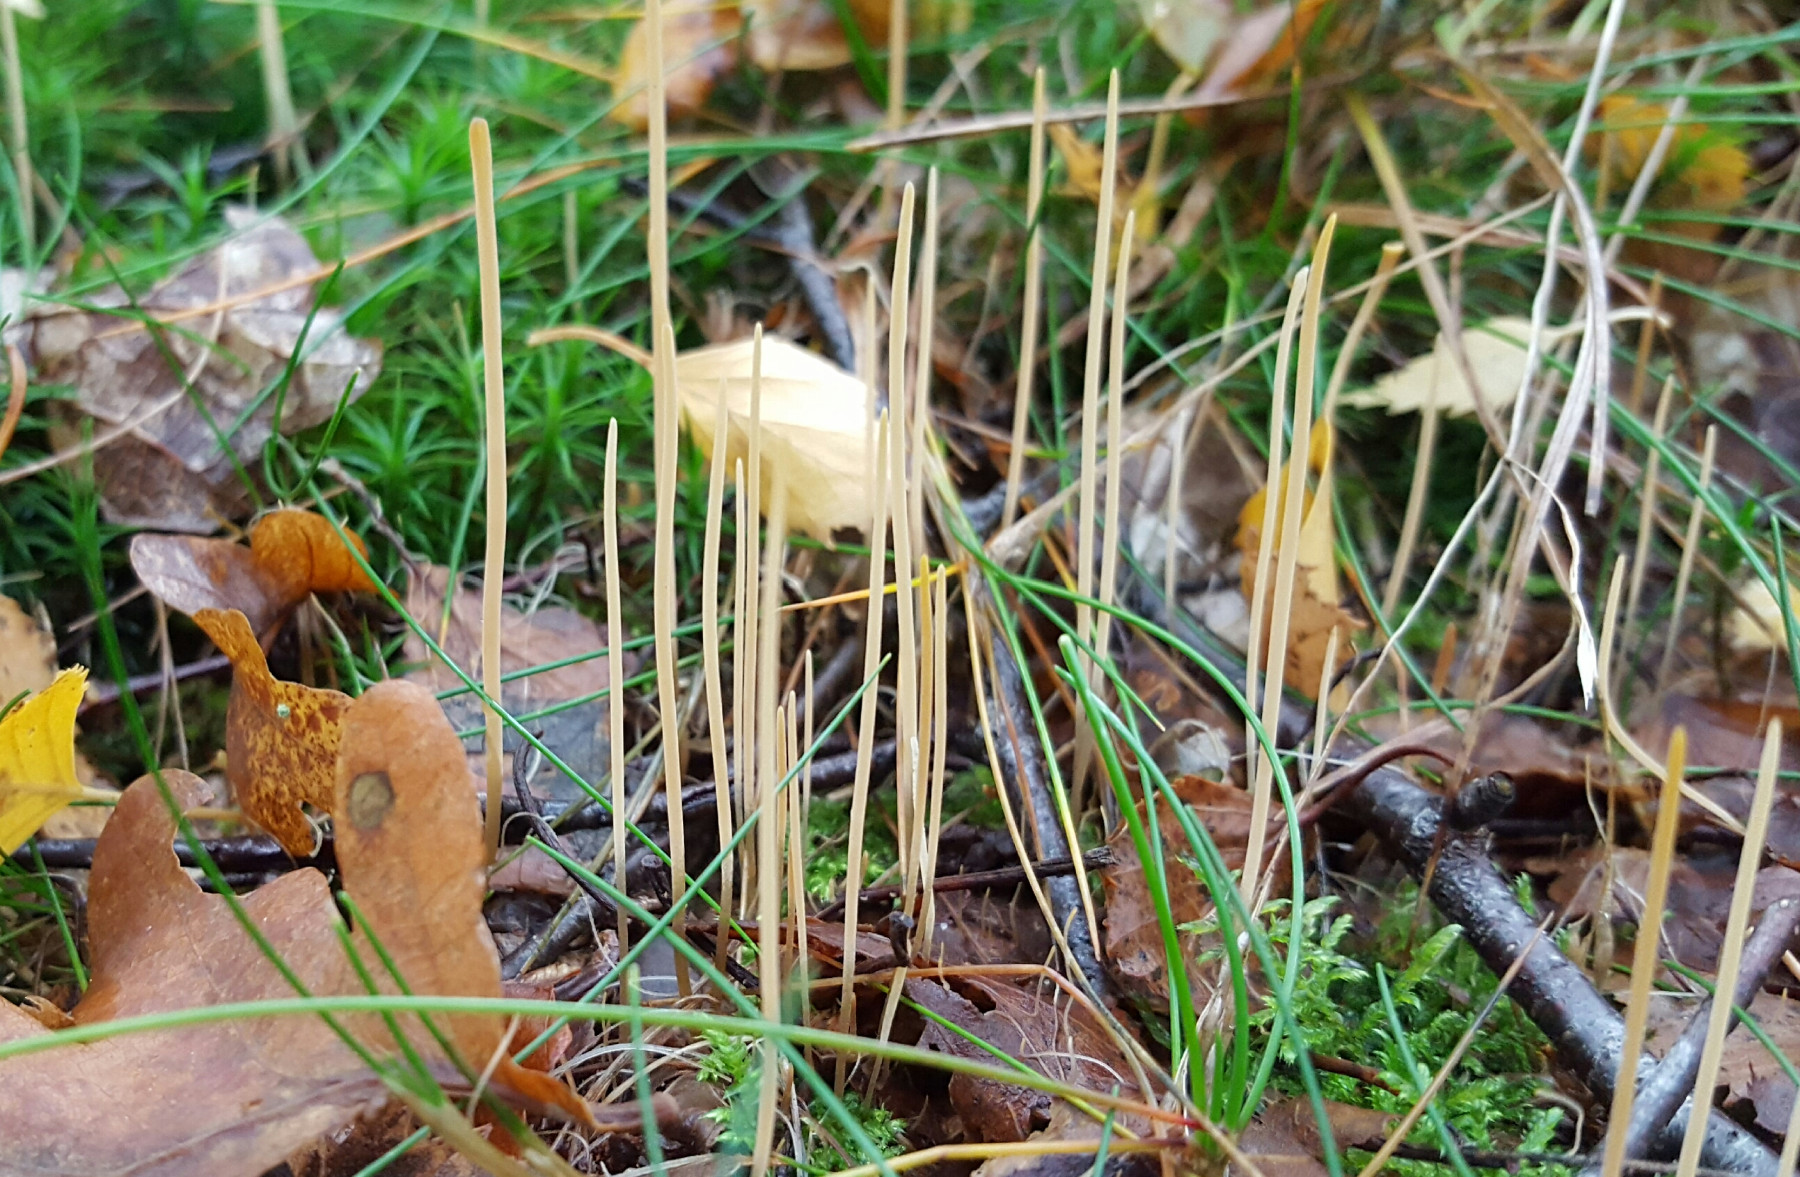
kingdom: Fungi
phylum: Basidiomycota
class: Agaricomycetes
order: Agaricales
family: Typhulaceae
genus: Macrotyphula
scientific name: Macrotyphula
